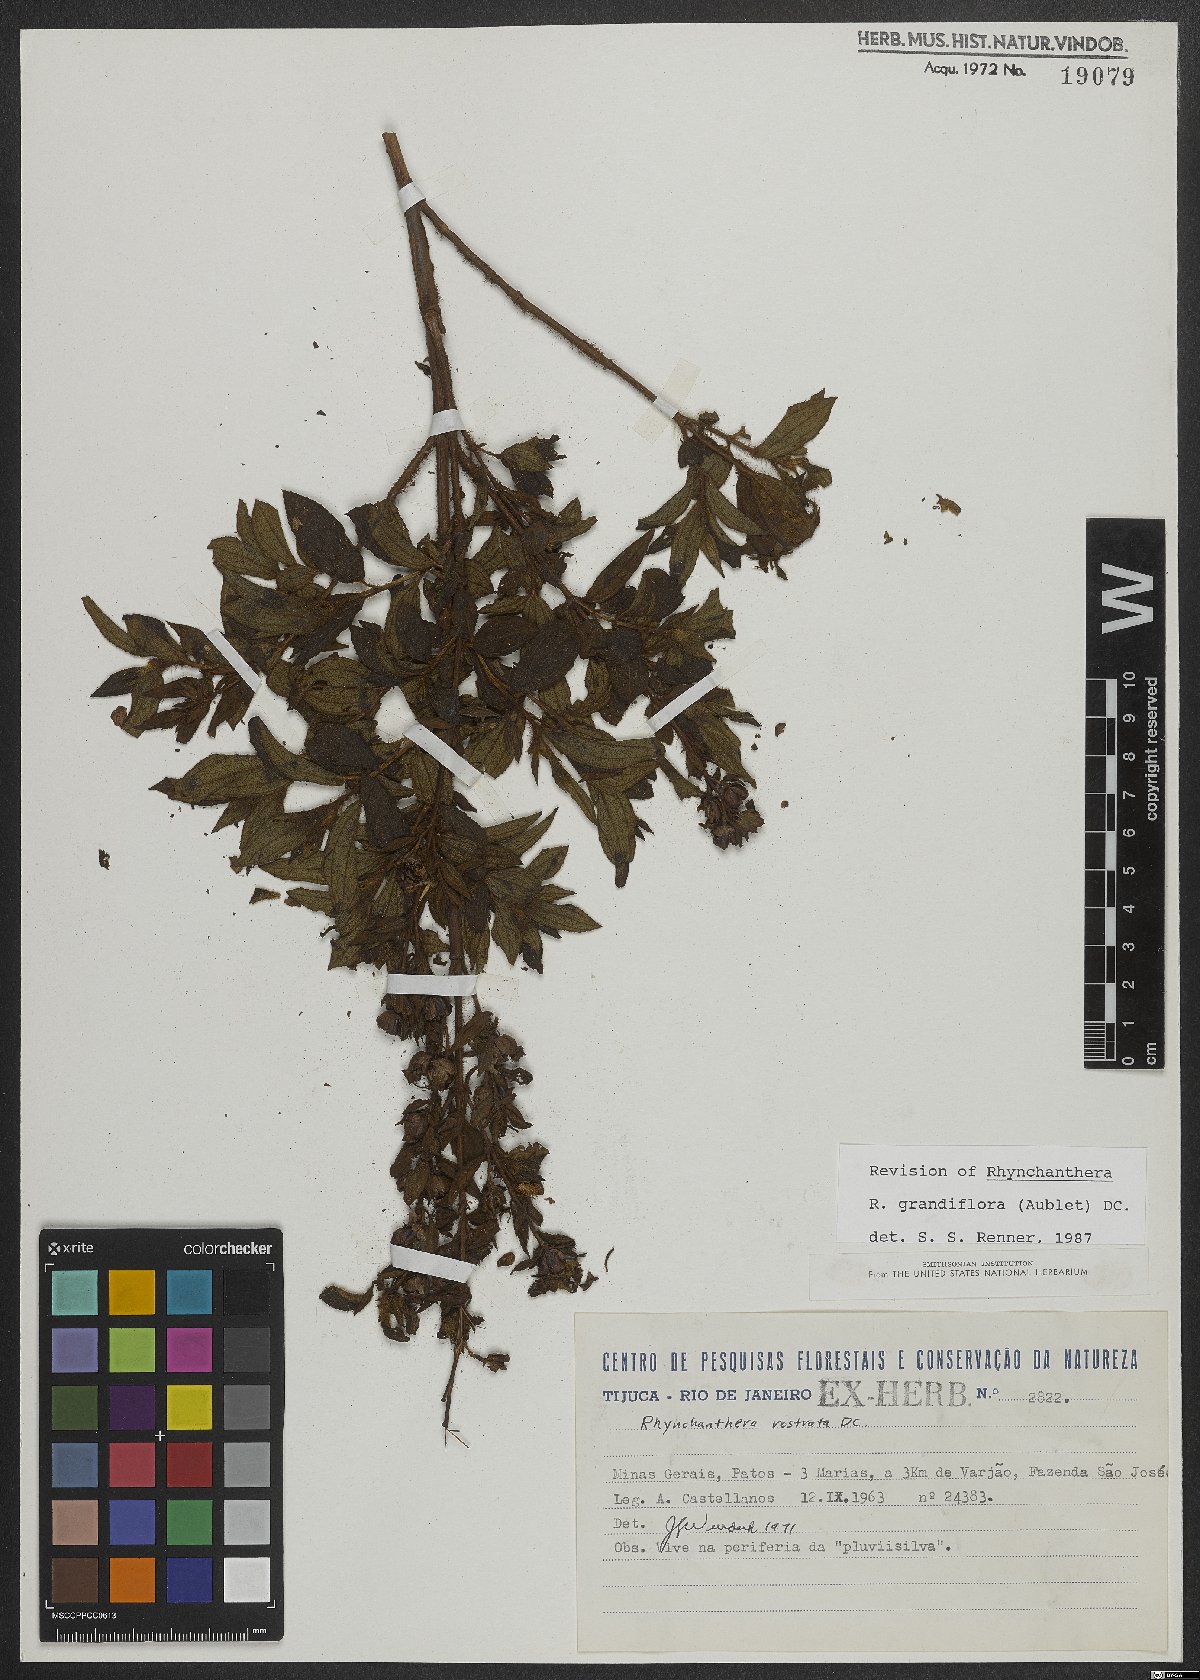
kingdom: Plantae
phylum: Tracheophyta
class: Magnoliopsida
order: Myrtales
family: Melastomataceae
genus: Rhynchanthera
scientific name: Rhynchanthera grandiflora
